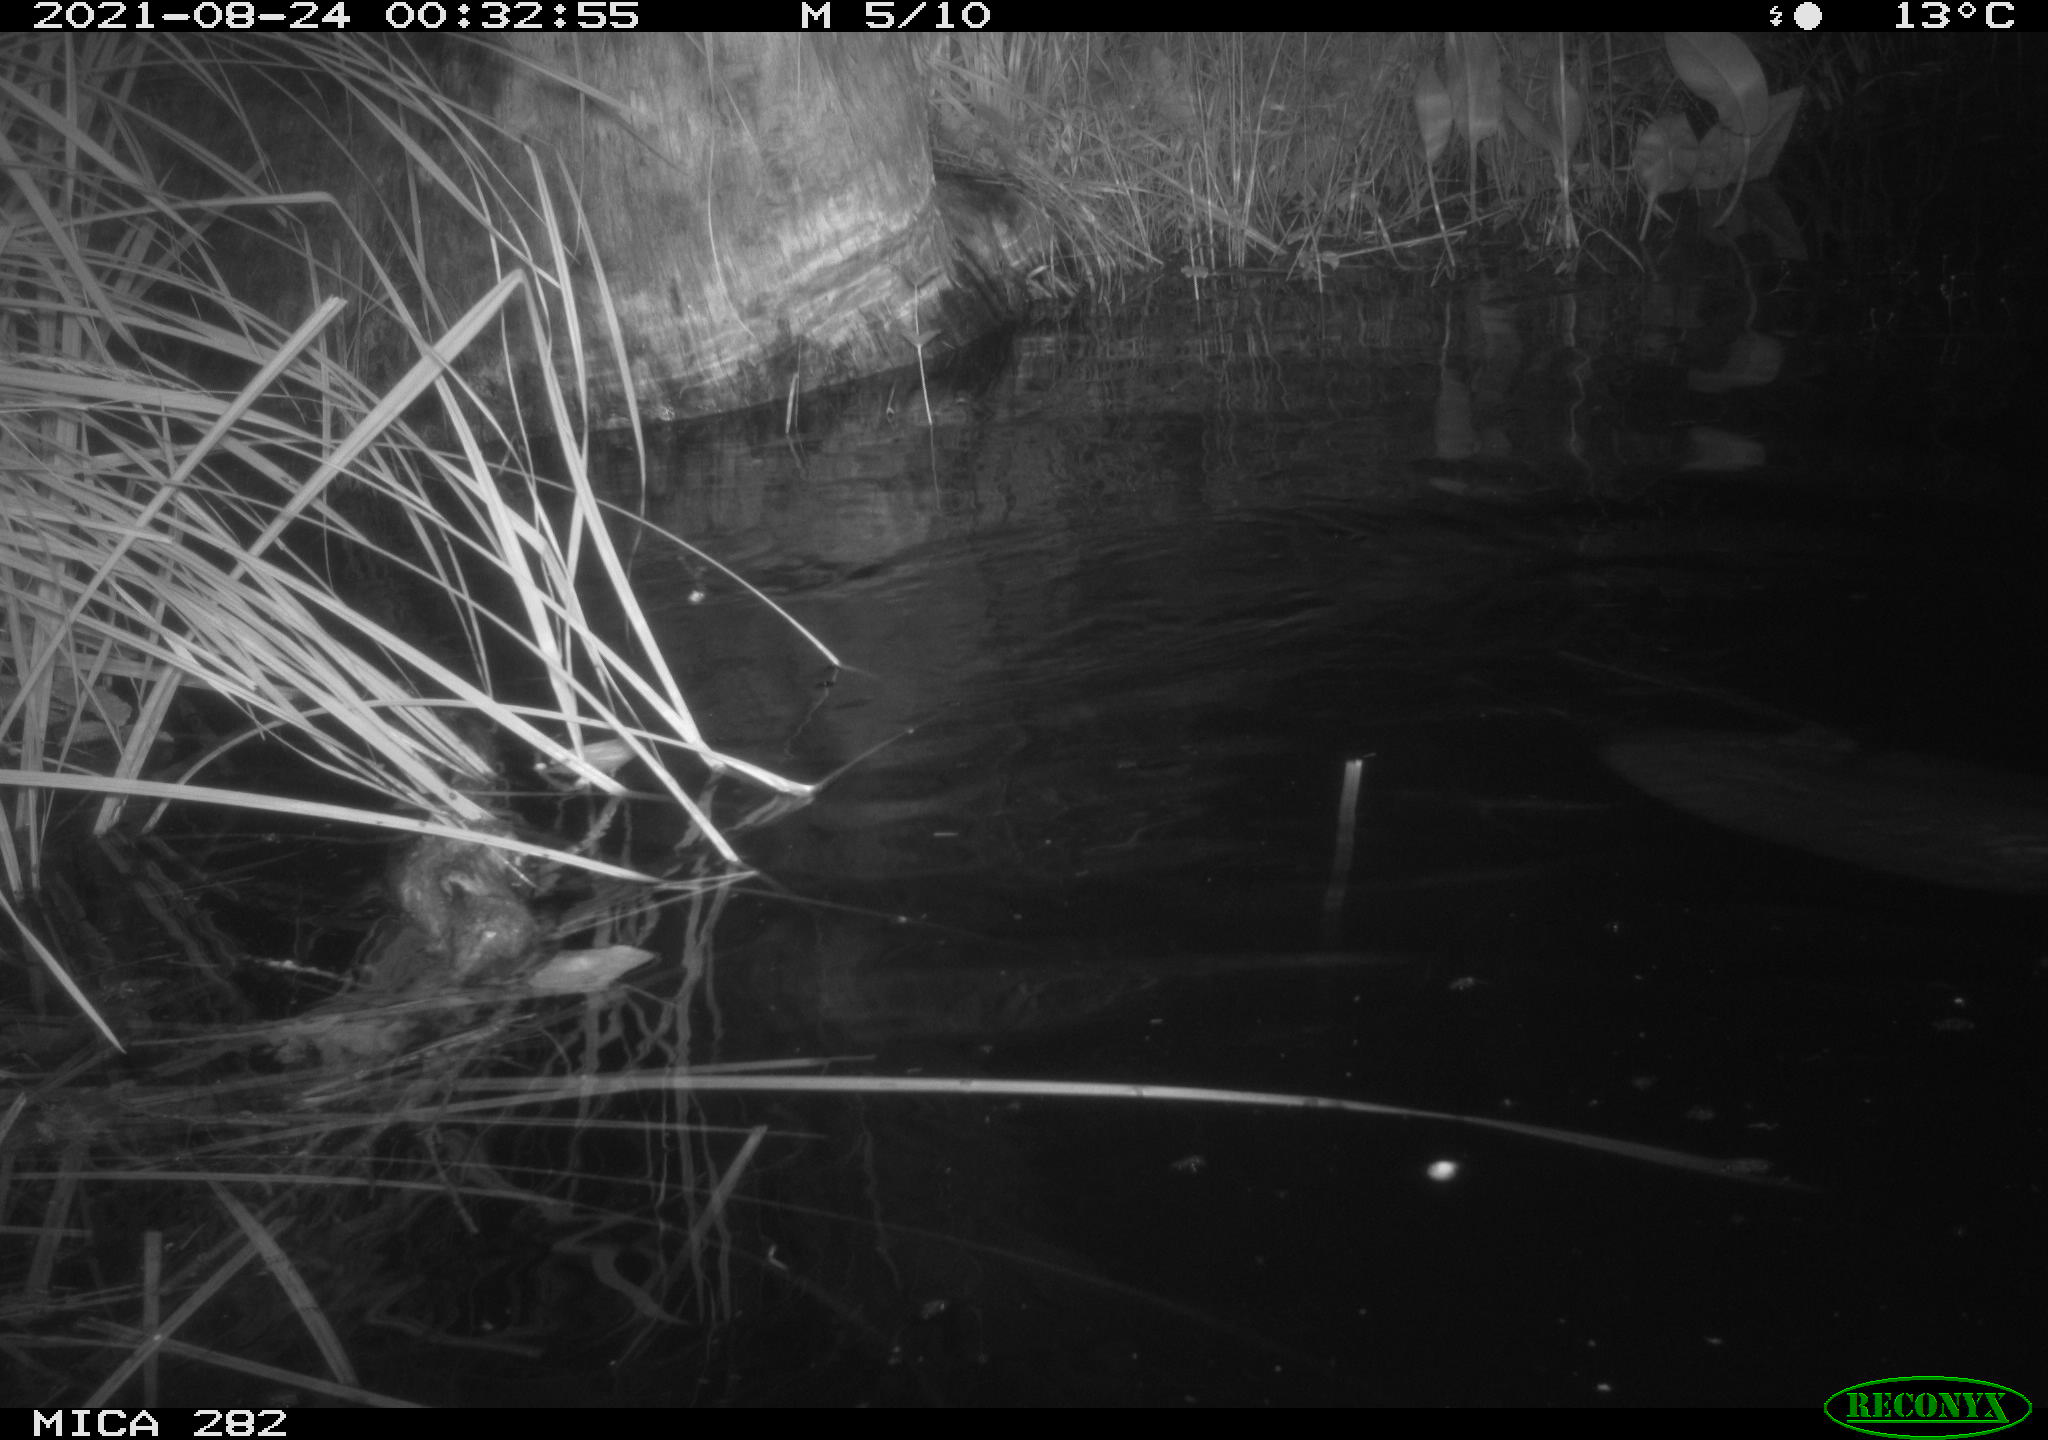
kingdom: Animalia
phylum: Chordata
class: Mammalia
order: Rodentia
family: Castoridae
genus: Castor
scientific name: Castor fiber
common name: Eurasian beaver
